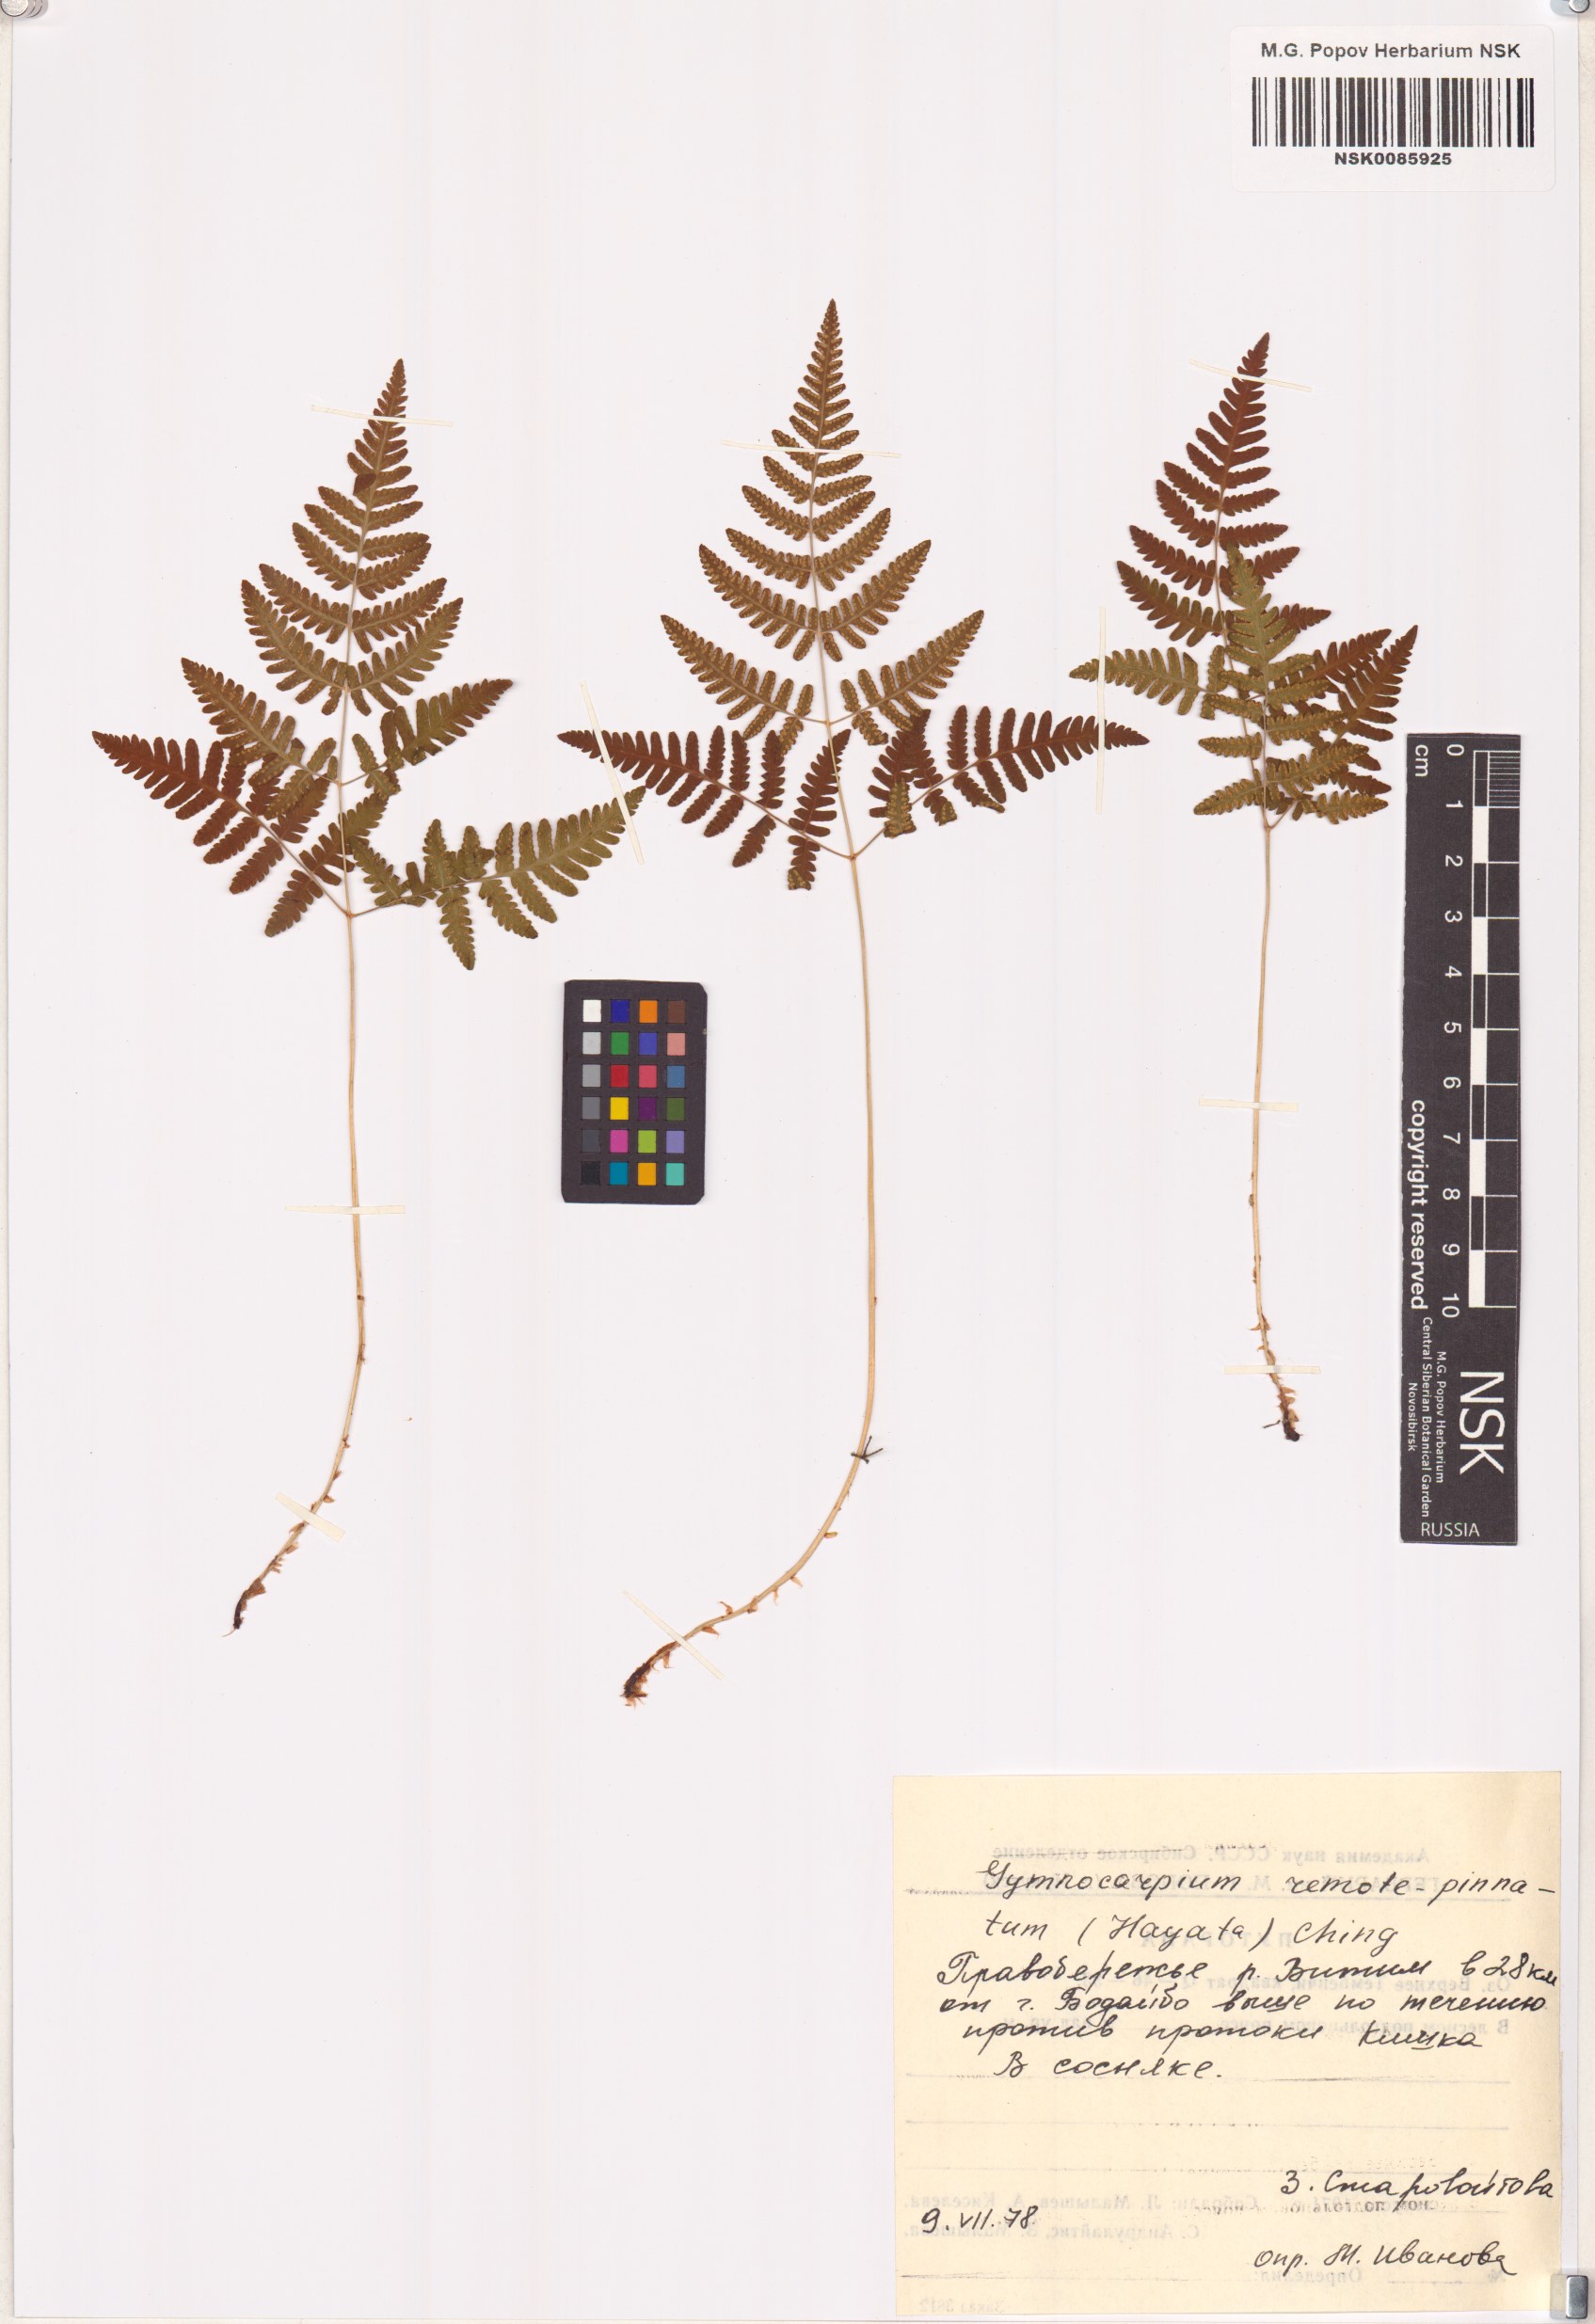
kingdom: Plantae
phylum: Tracheophyta
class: Polypodiopsida
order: Polypodiales
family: Cystopteridaceae
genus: Gymnocarpium
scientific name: Gymnocarpium remotepinnatum
